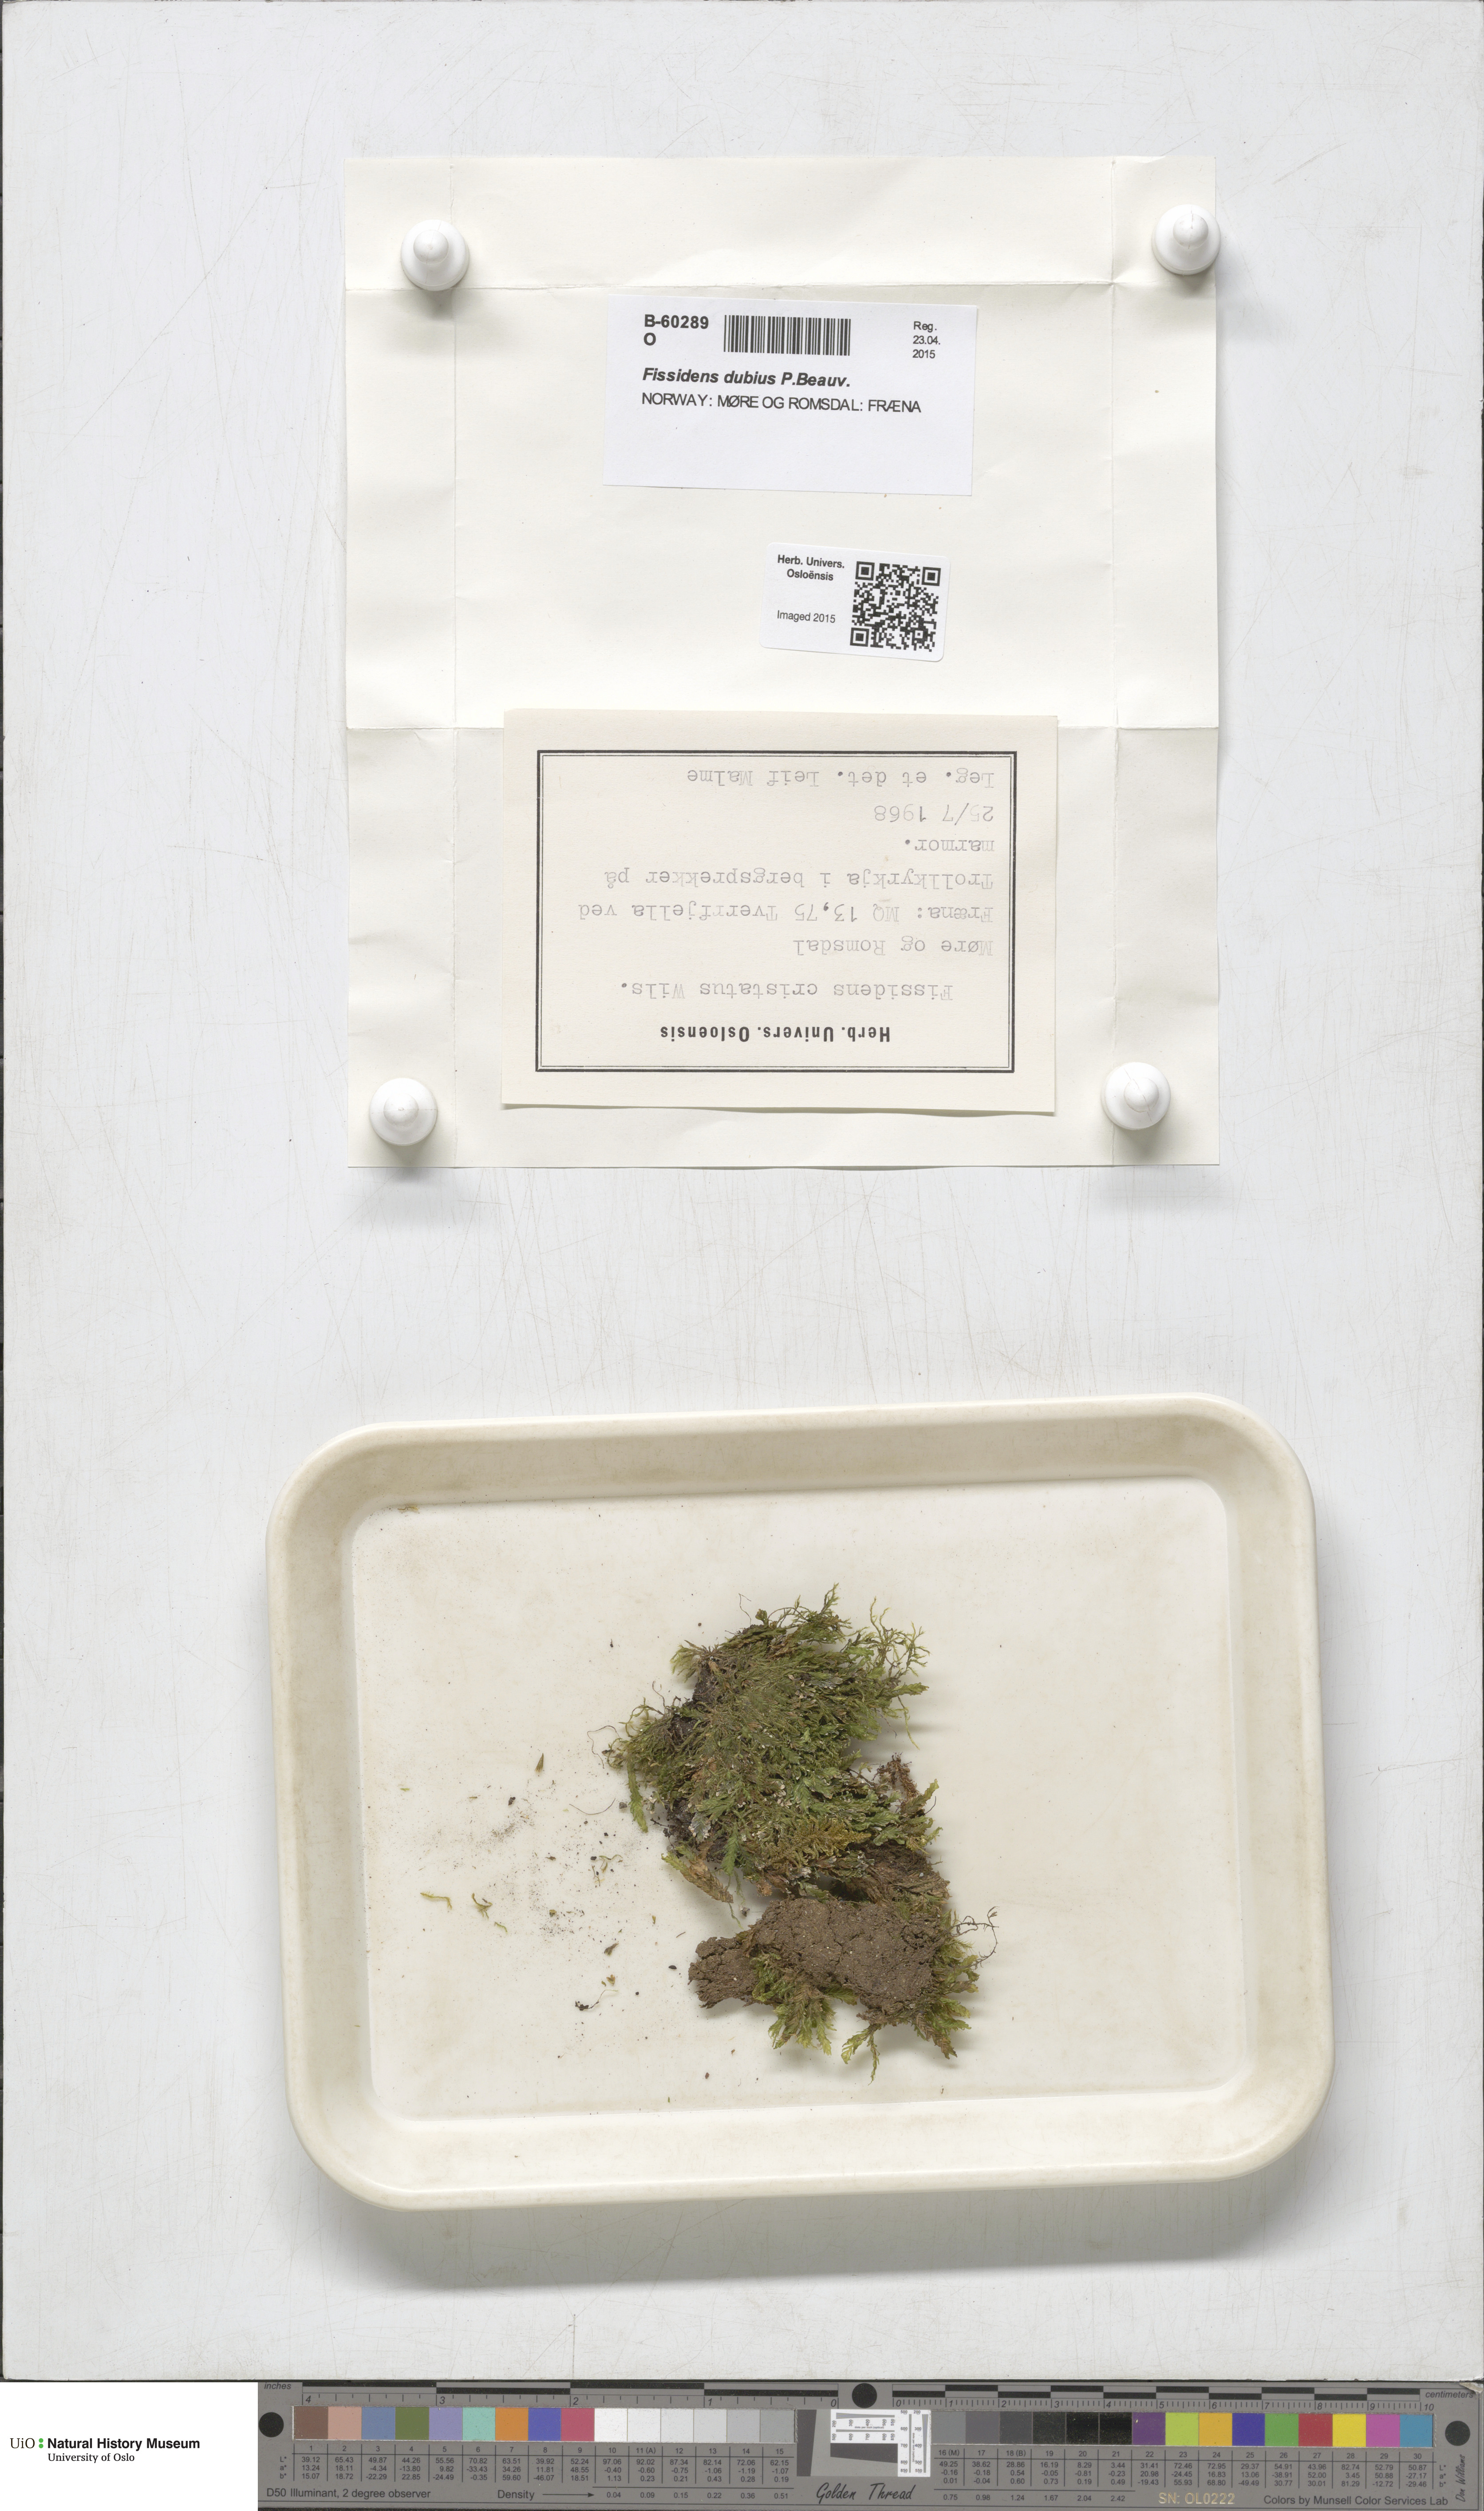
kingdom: Plantae
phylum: Bryophyta
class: Bryopsida
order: Dicranales
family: Fissidentaceae
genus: Fissidens
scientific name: Fissidens dubius
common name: Rock pocket moss
